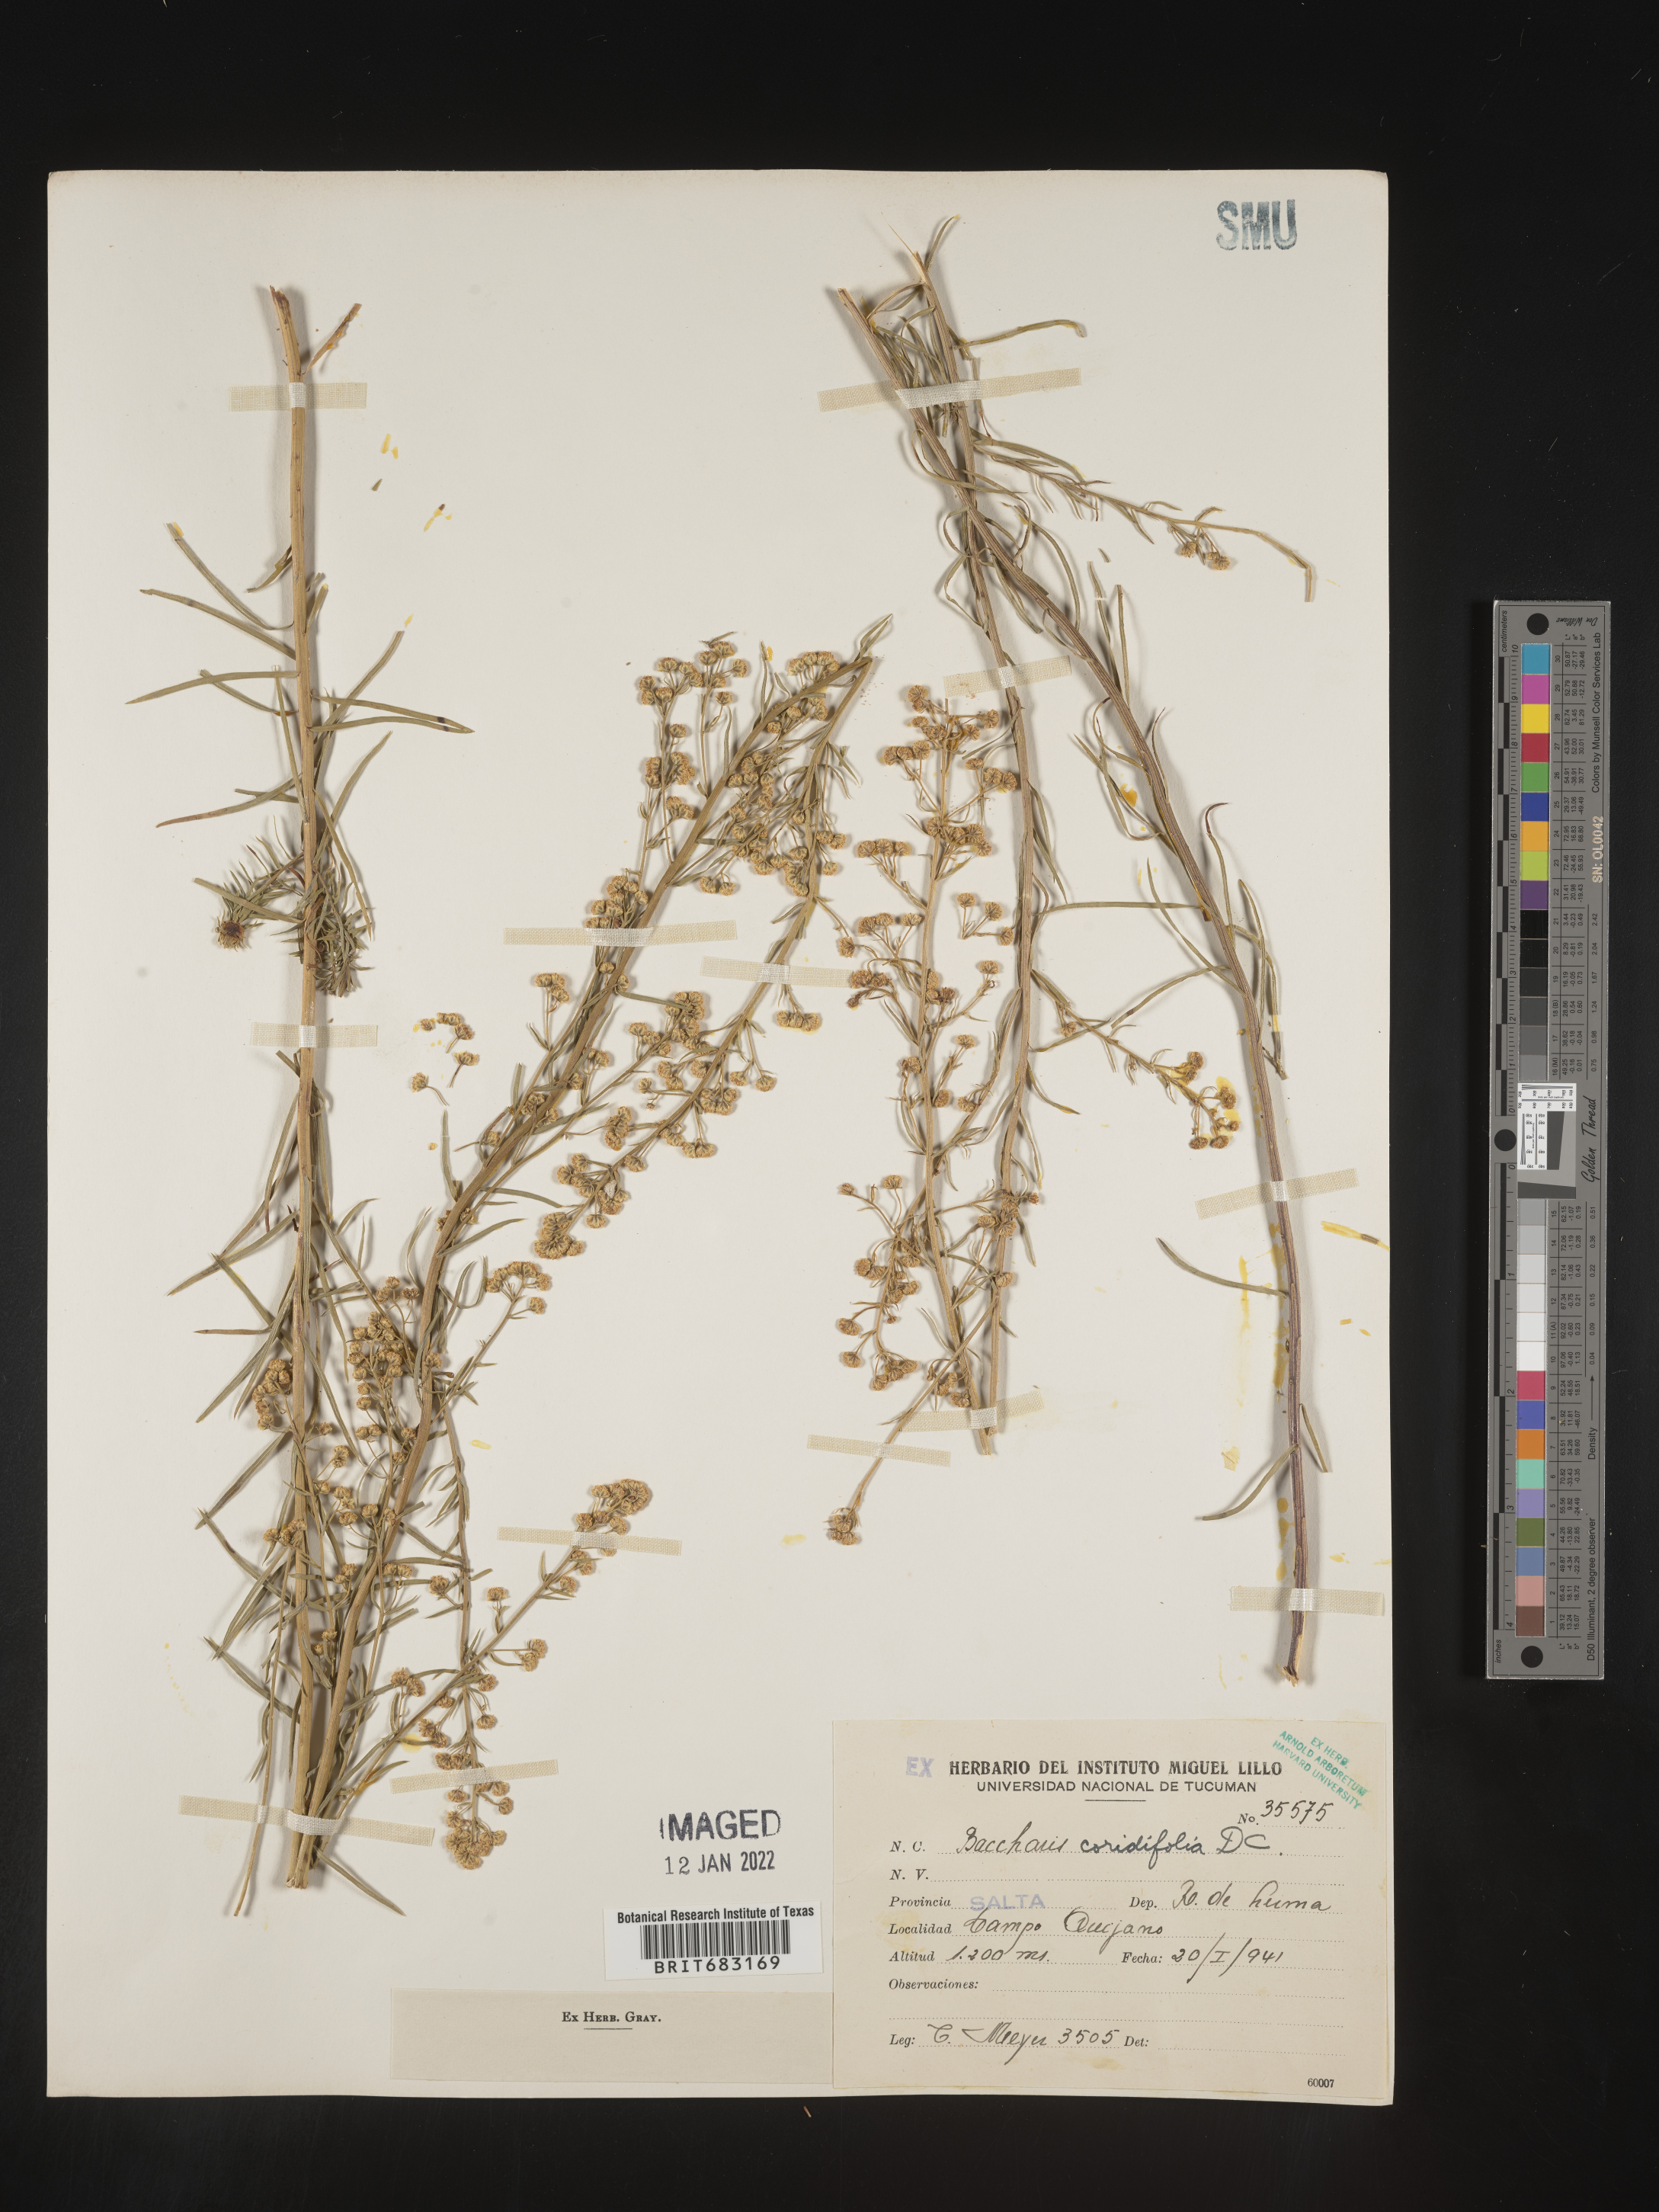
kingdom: Plantae
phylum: Tracheophyta
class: Magnoliopsida
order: Asterales
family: Asteraceae
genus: Baccharis
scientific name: Baccharis
